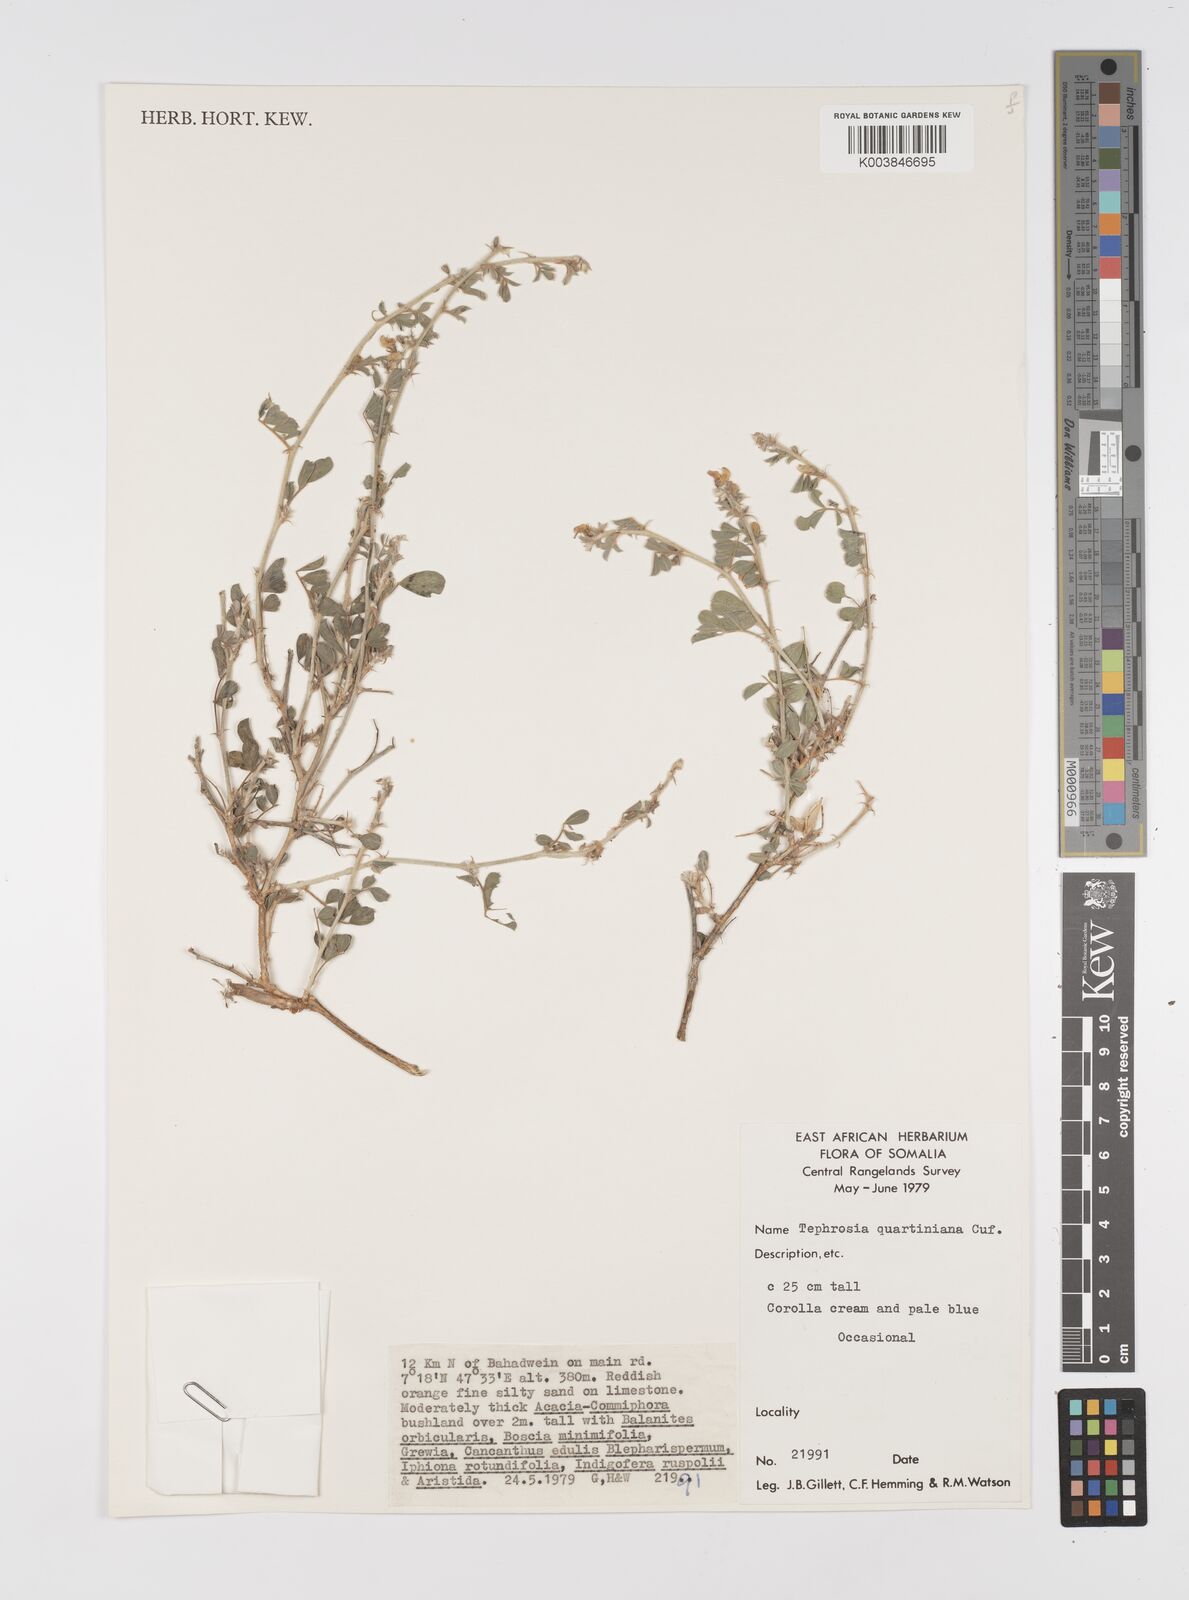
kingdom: Plantae
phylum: Tracheophyta
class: Magnoliopsida
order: Fabales
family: Fabaceae
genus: Tephrosia
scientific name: Tephrosia uniflora
